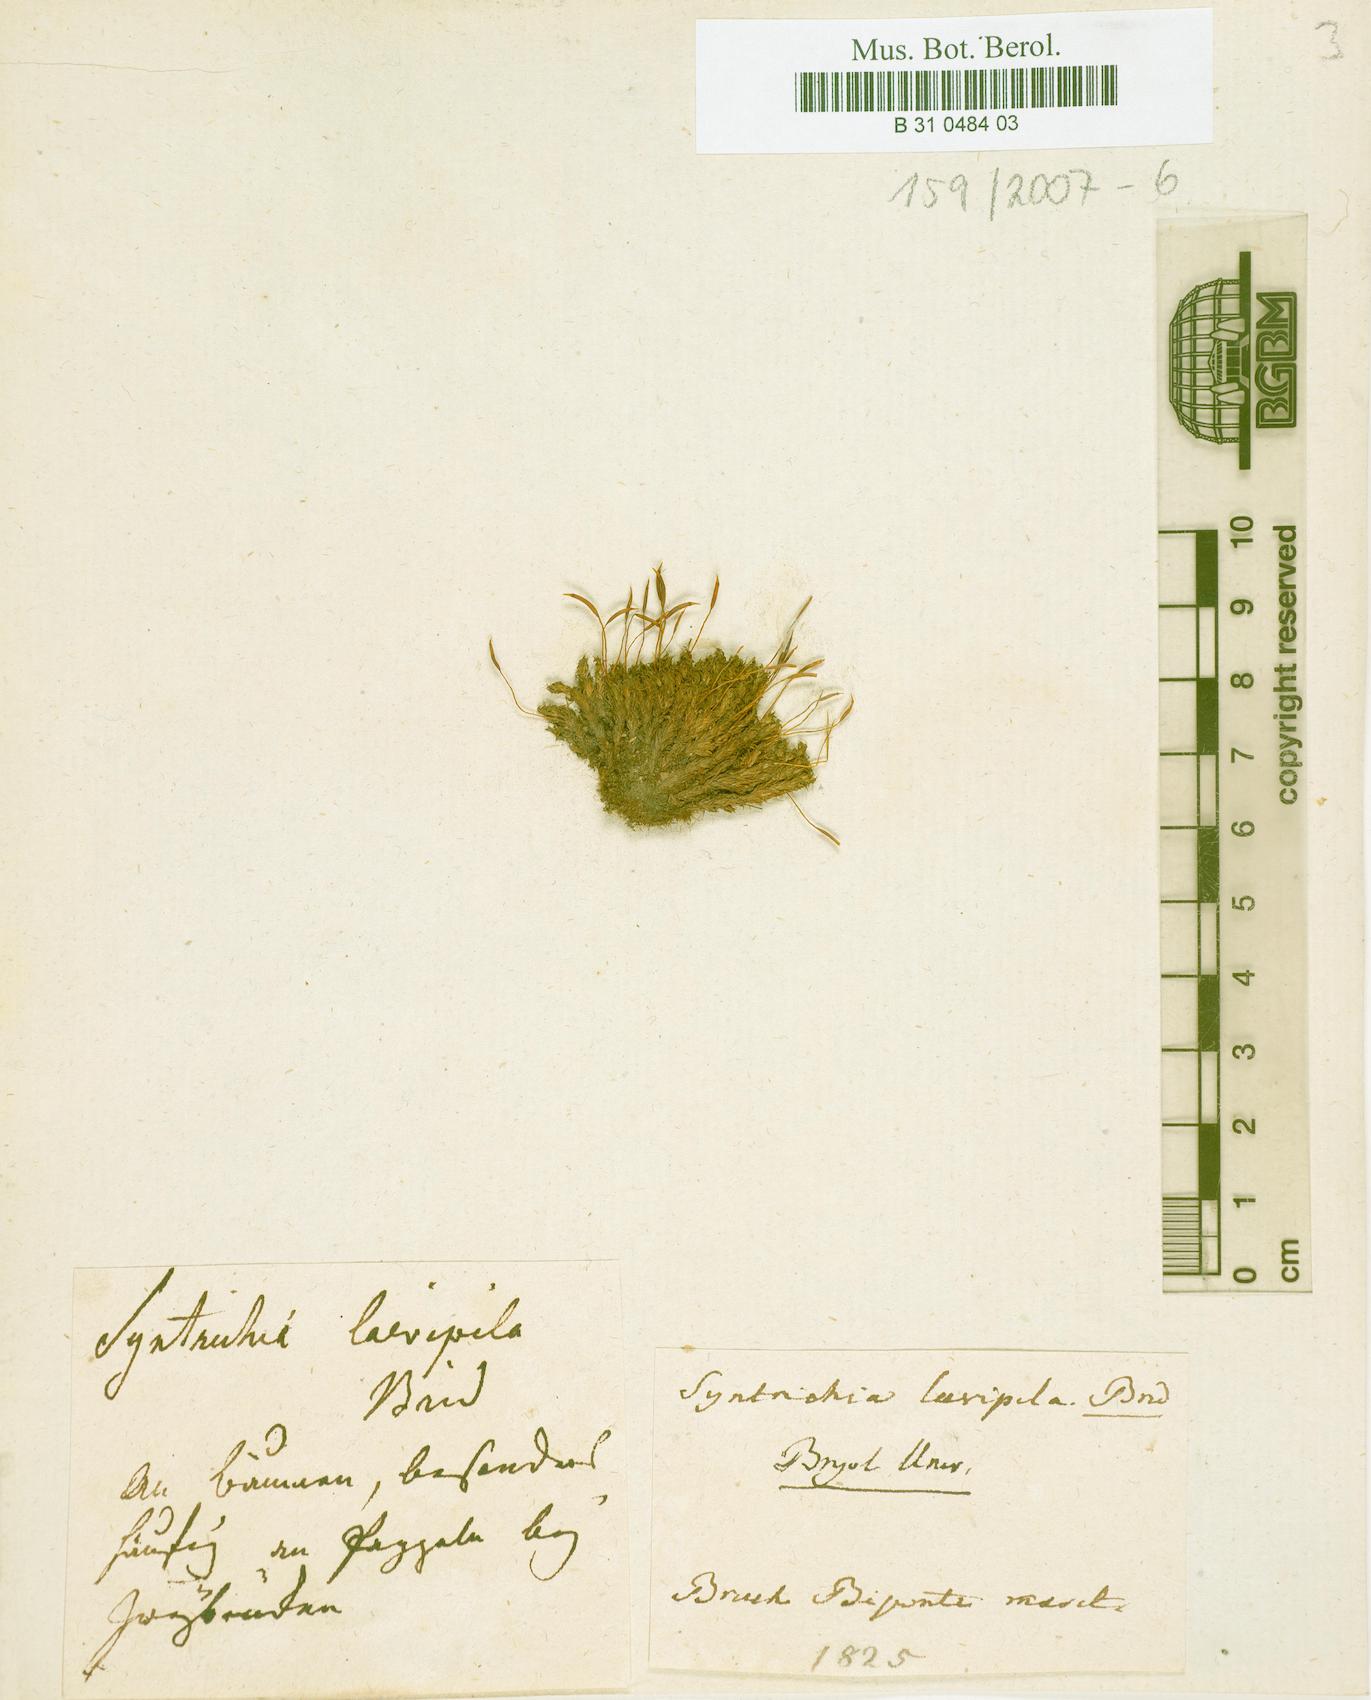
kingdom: Plantae
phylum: Bryophyta
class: Bryopsida
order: Pottiales
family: Pottiaceae
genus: Syntrichia
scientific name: Syntrichia laevipila
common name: Small hairy screw-moss
